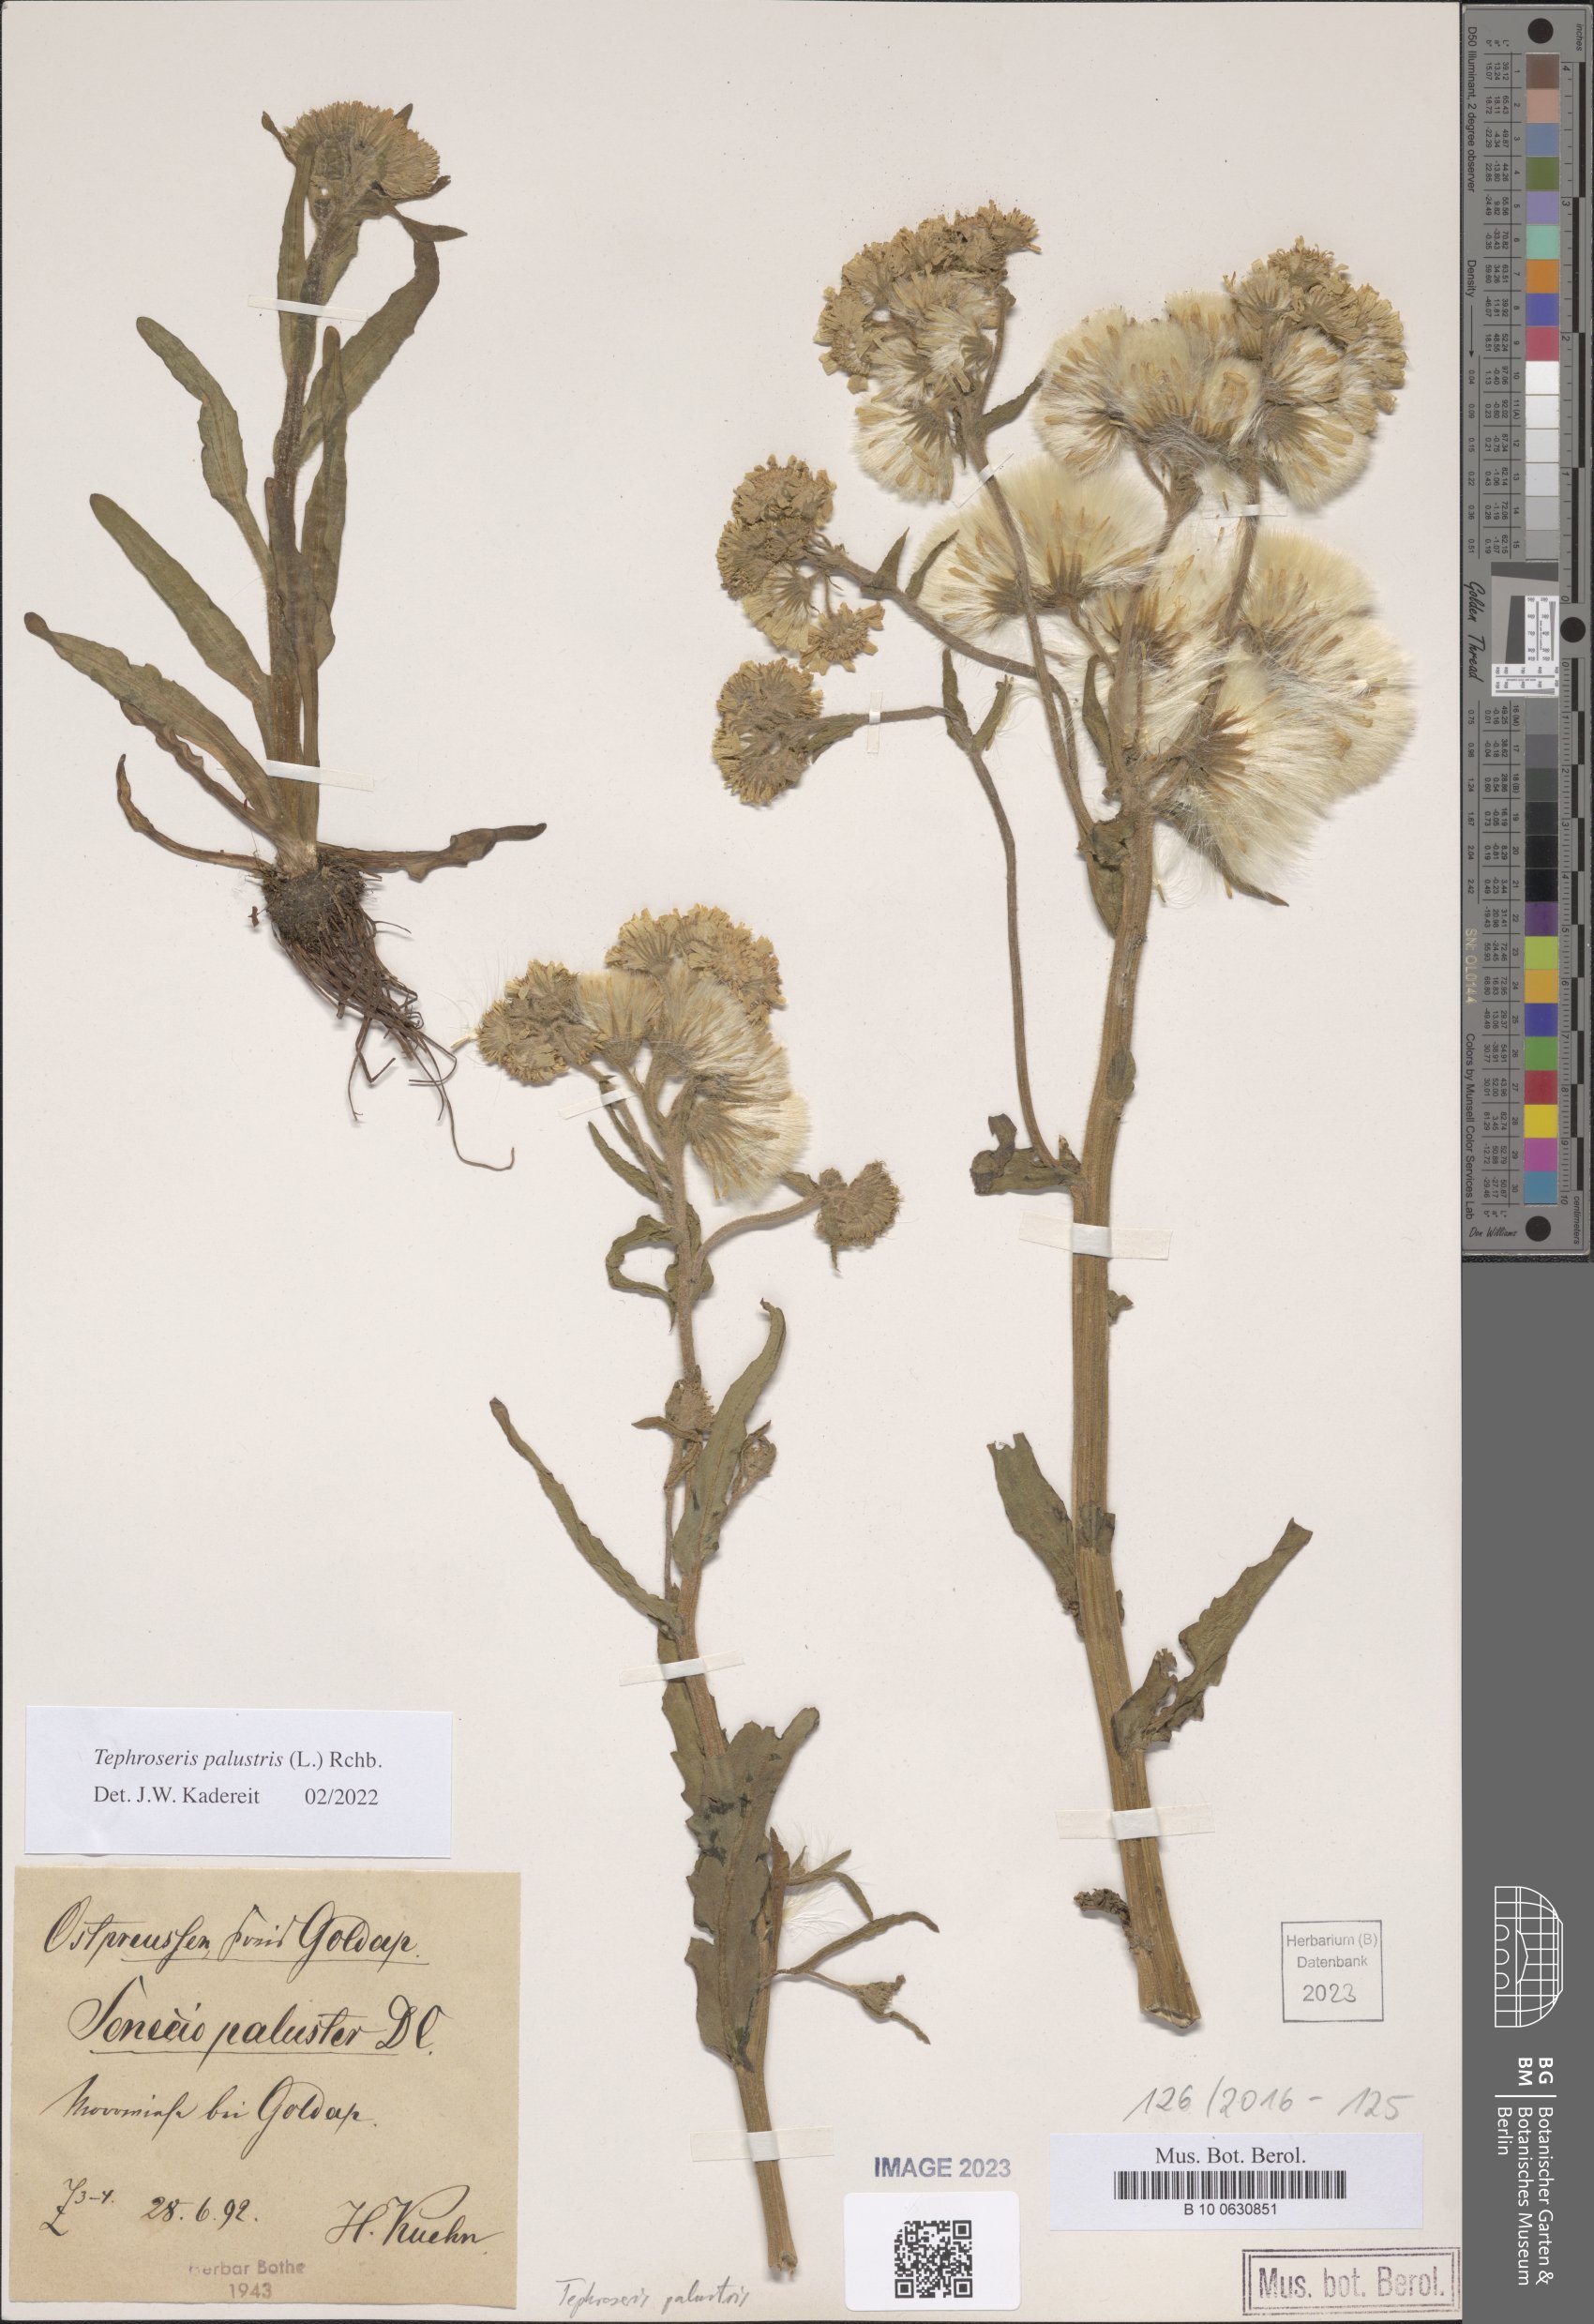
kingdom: Plantae
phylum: Tracheophyta
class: Magnoliopsida
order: Asterales
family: Asteraceae
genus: Tephroseris
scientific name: Tephroseris palustris
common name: Marsh fleawort
